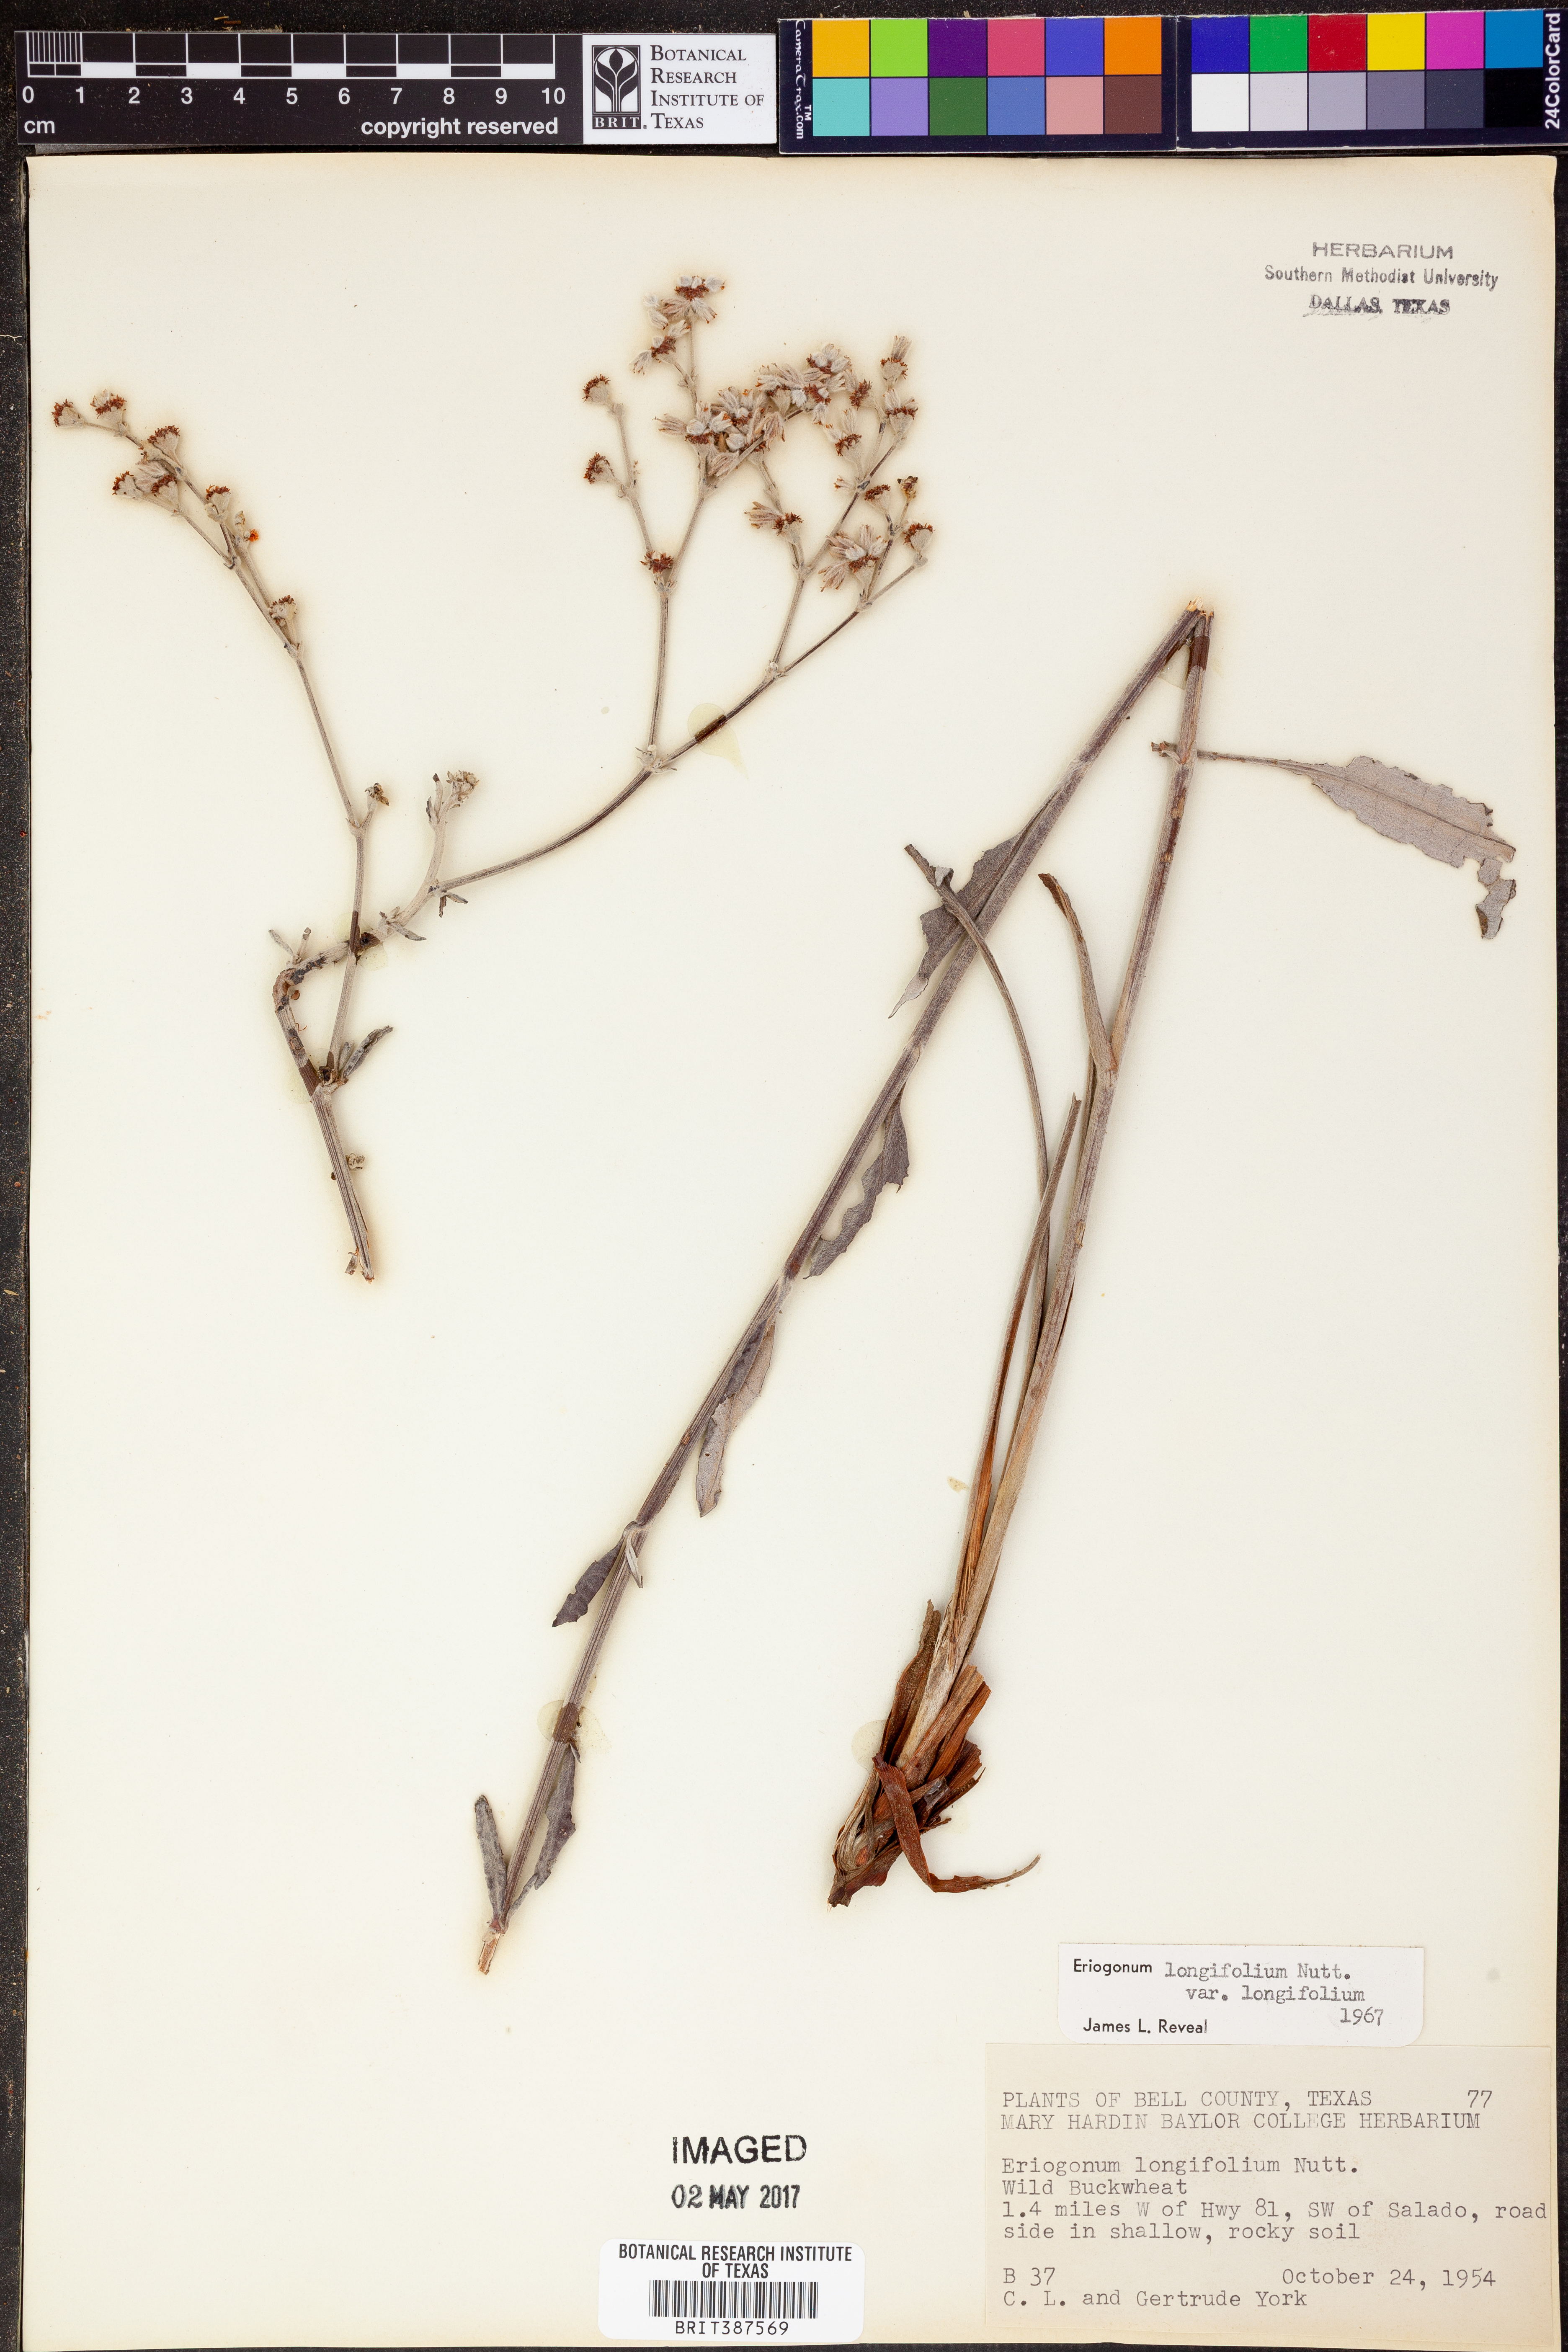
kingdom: Plantae
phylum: Tracheophyta
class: Magnoliopsida
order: Caryophyllales
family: Polygonaceae
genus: Eriogonum
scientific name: Eriogonum longifolium
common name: Longleaf wild buckwheat
